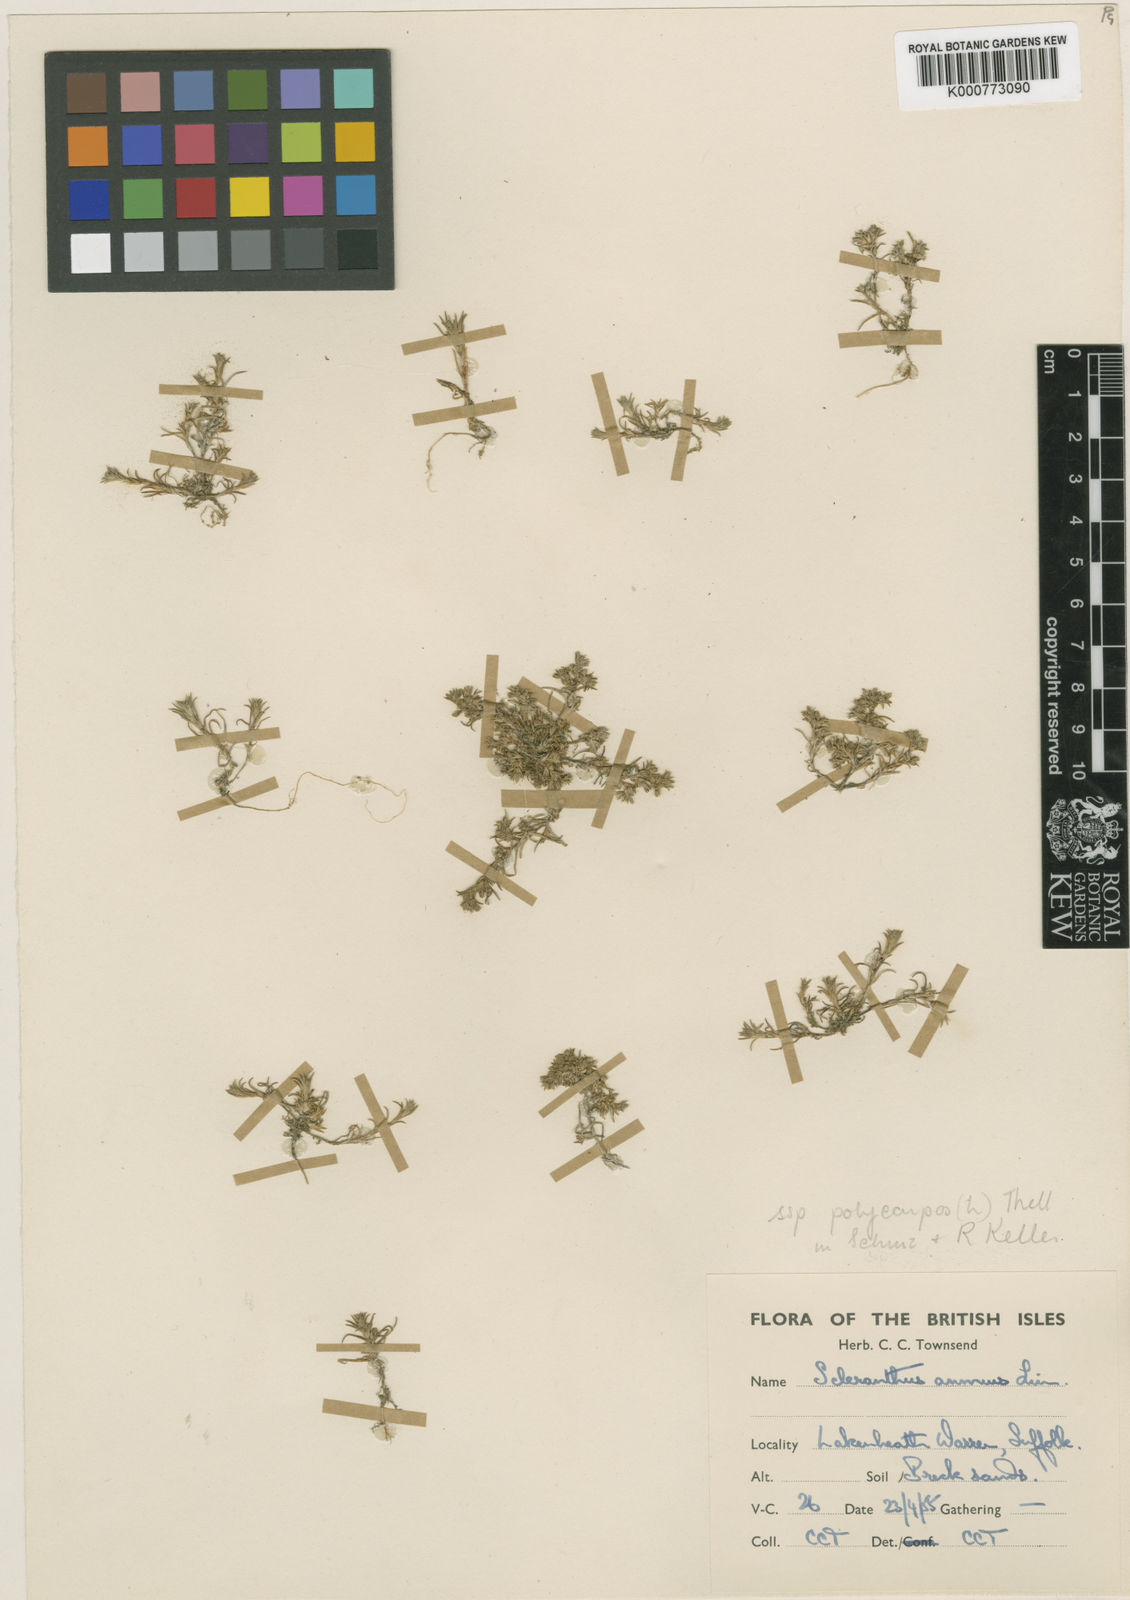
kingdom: Plantae
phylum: Tracheophyta
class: Magnoliopsida
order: Caryophyllales
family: Caryophyllaceae
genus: Scleranthus
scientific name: Scleranthus annuus
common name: Annual knawel
